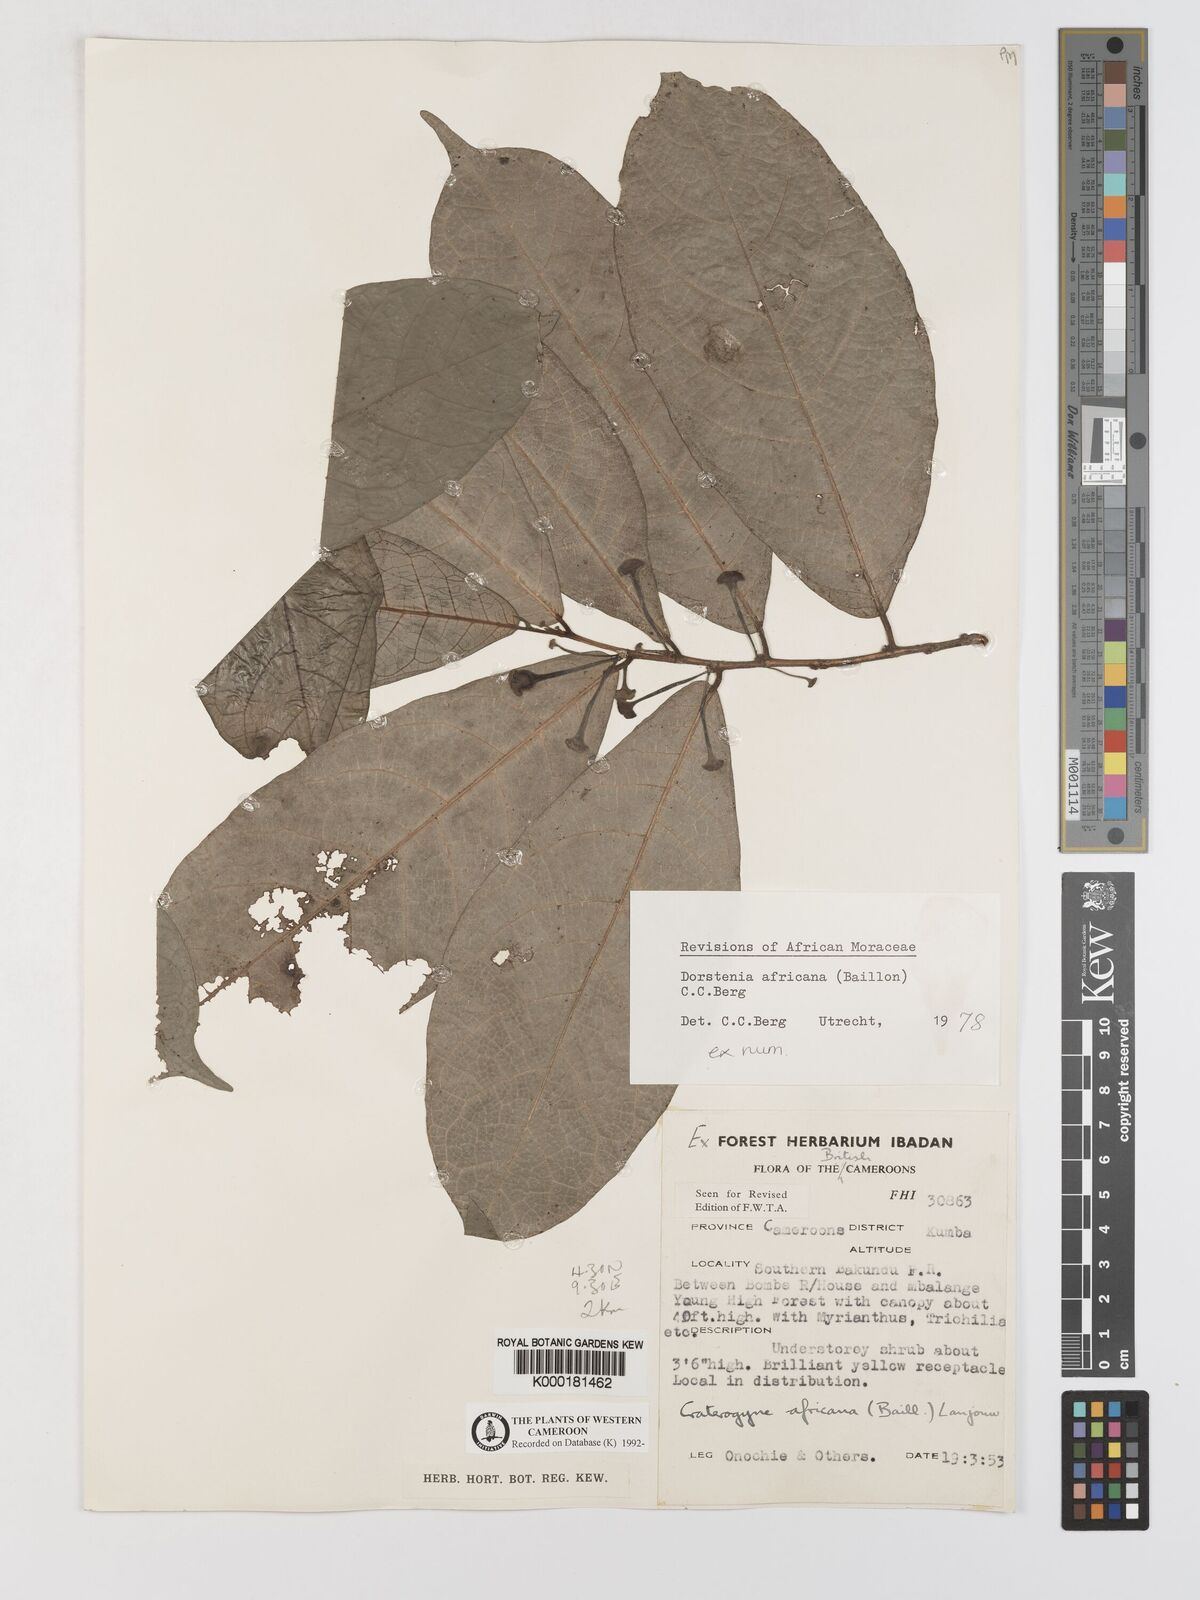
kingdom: Plantae
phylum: Tracheophyta
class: Magnoliopsida
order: Rosales
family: Moraceae
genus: Dorstenia
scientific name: Dorstenia africana
